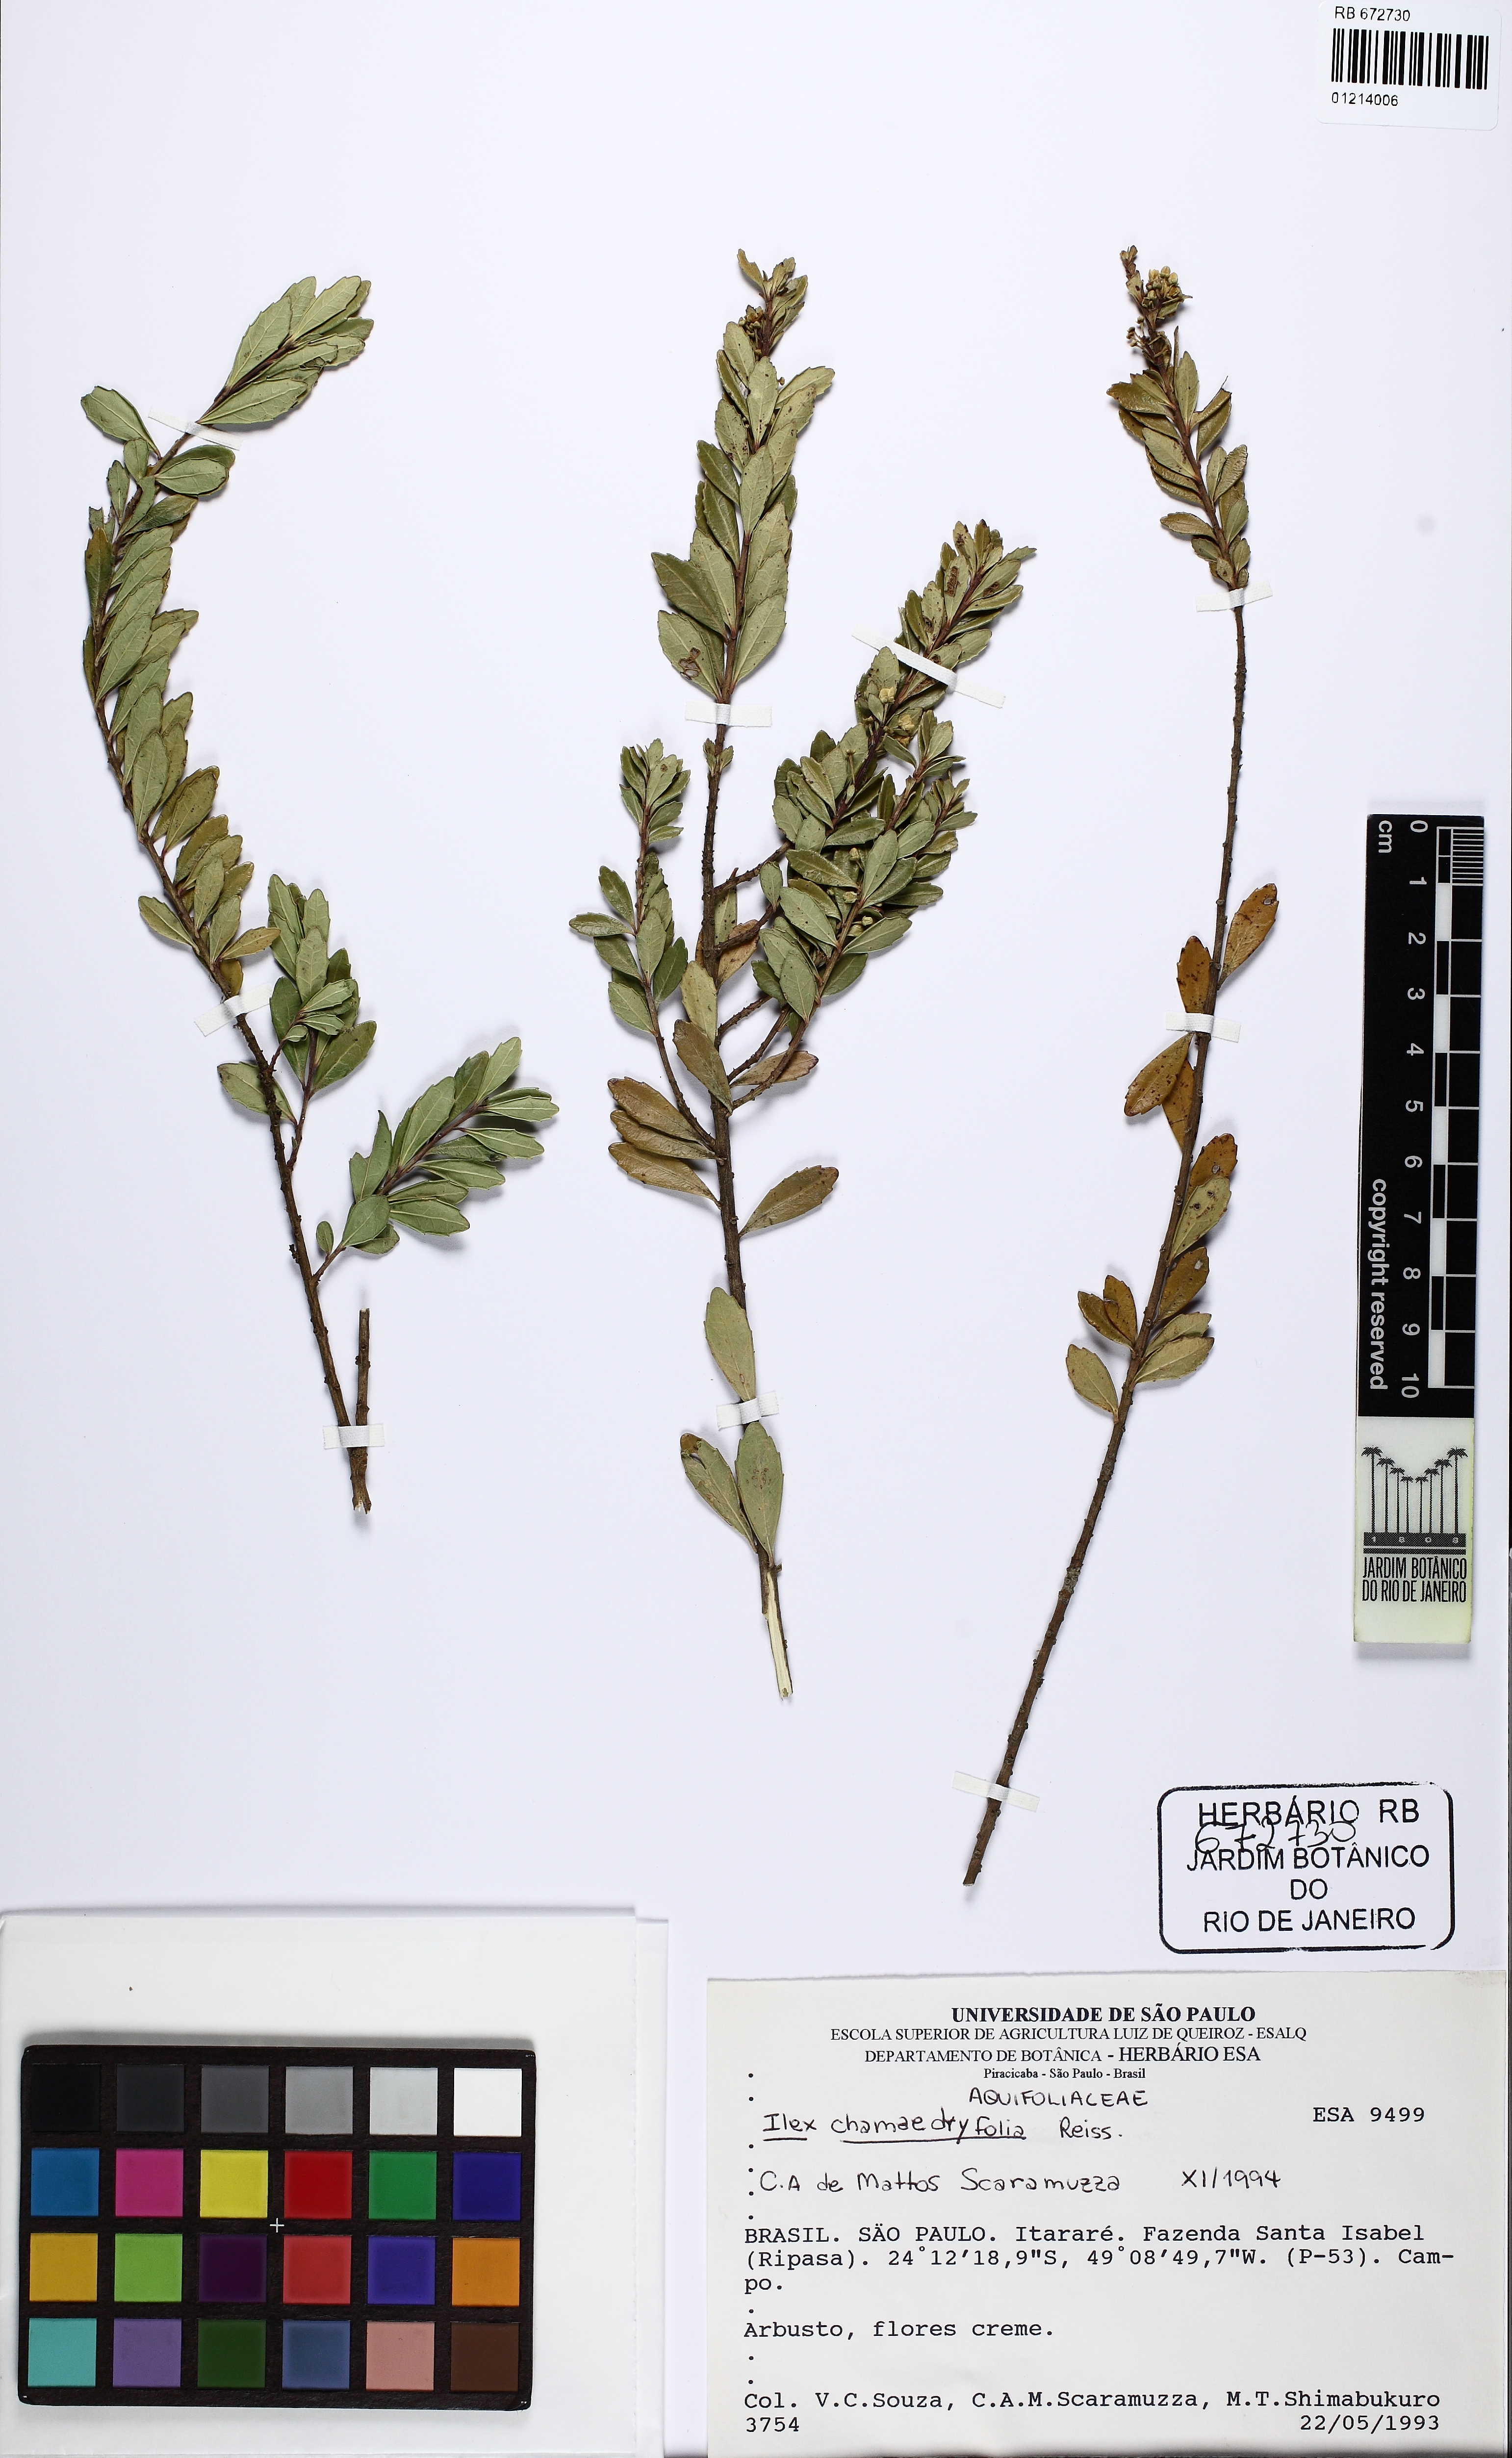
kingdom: Plantae
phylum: Tracheophyta
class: Magnoliopsida
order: Aquifoliales
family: Aquifoliaceae
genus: Ilex
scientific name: Ilex chamaedryfolia
